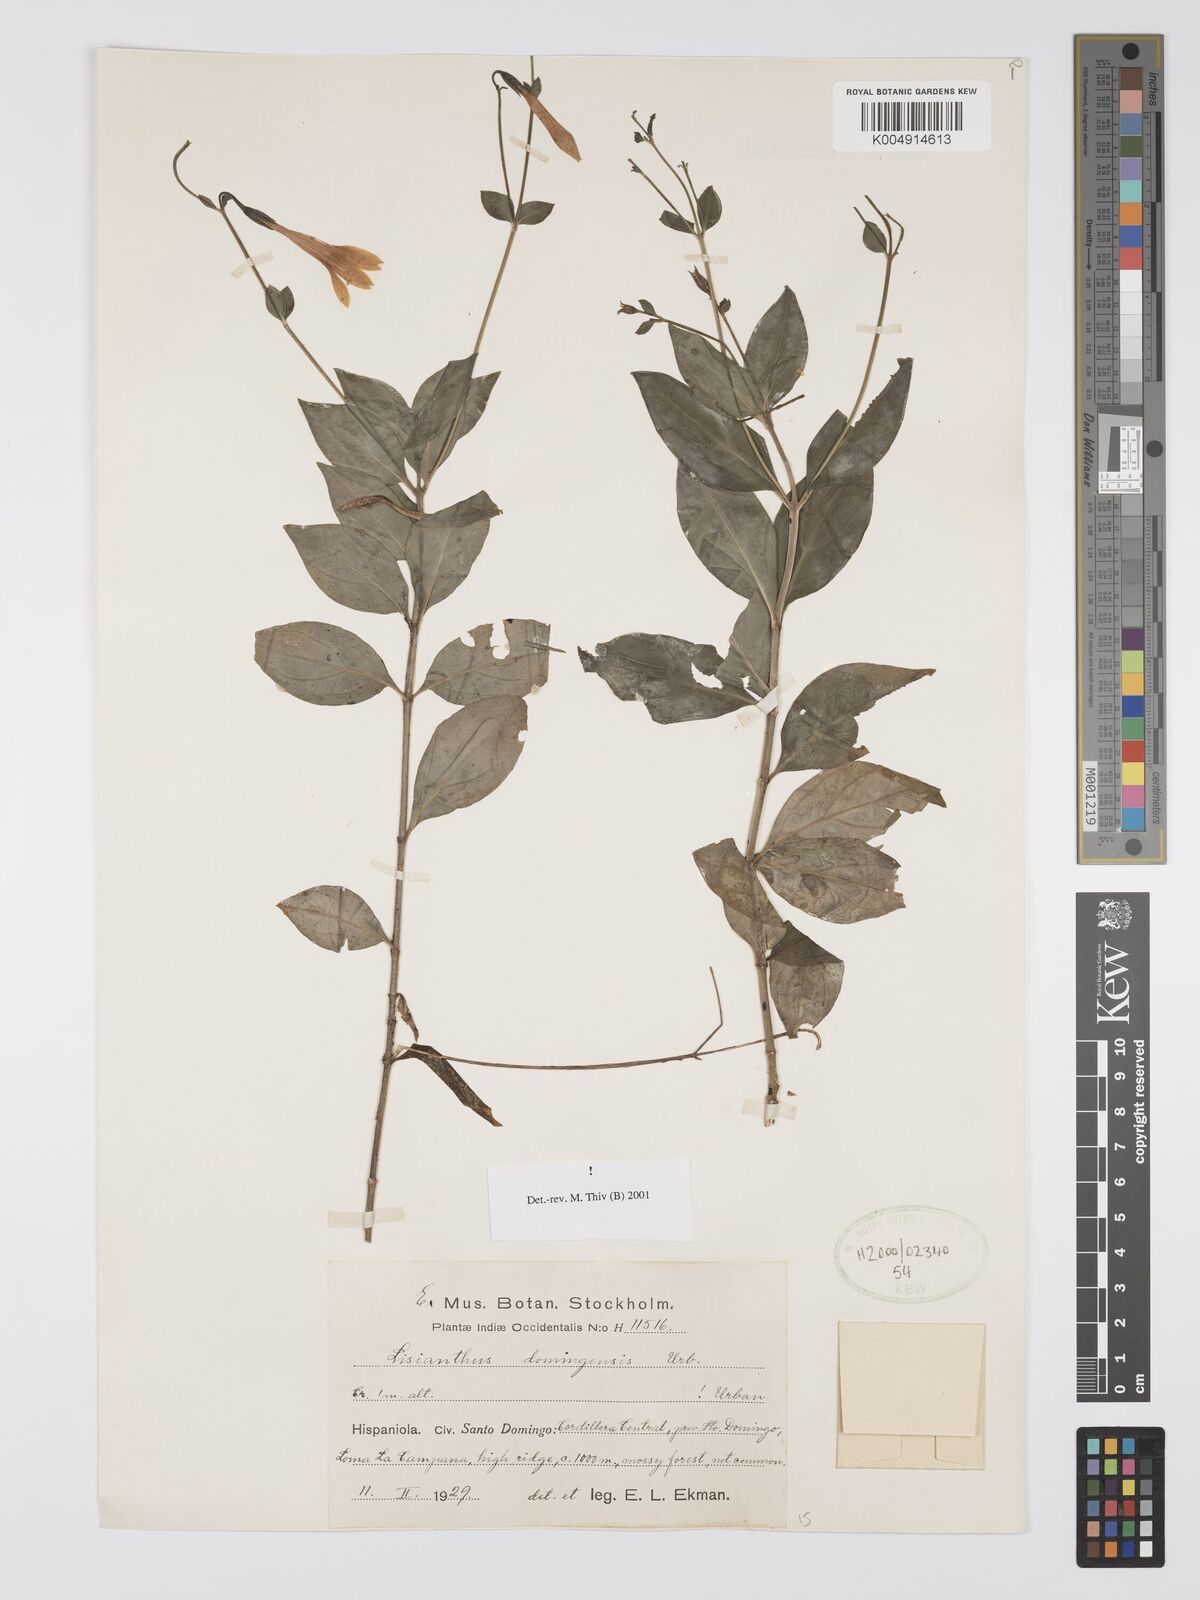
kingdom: Plantae
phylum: Tracheophyta
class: Magnoliopsida
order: Gentianales
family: Gentianaceae
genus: Lisianthius
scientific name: Lisianthius domingensis
